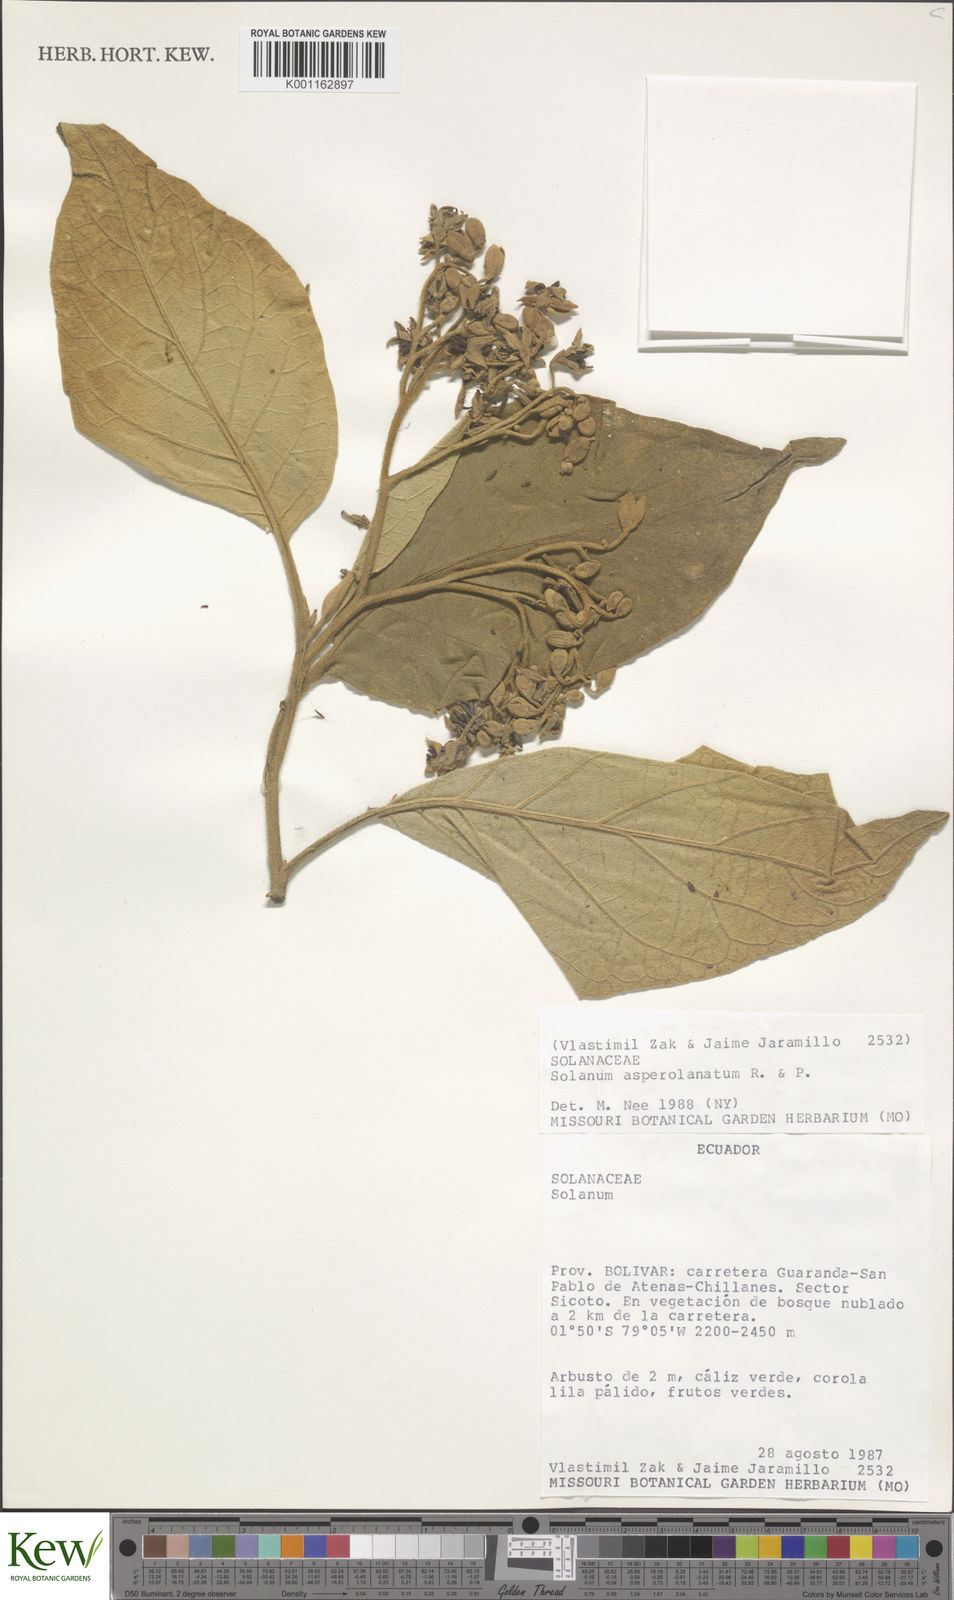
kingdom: Plantae
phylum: Tracheophyta
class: Magnoliopsida
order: Solanales
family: Solanaceae
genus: Solanum
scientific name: Solanum asperolanatum
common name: Devil's-fig
